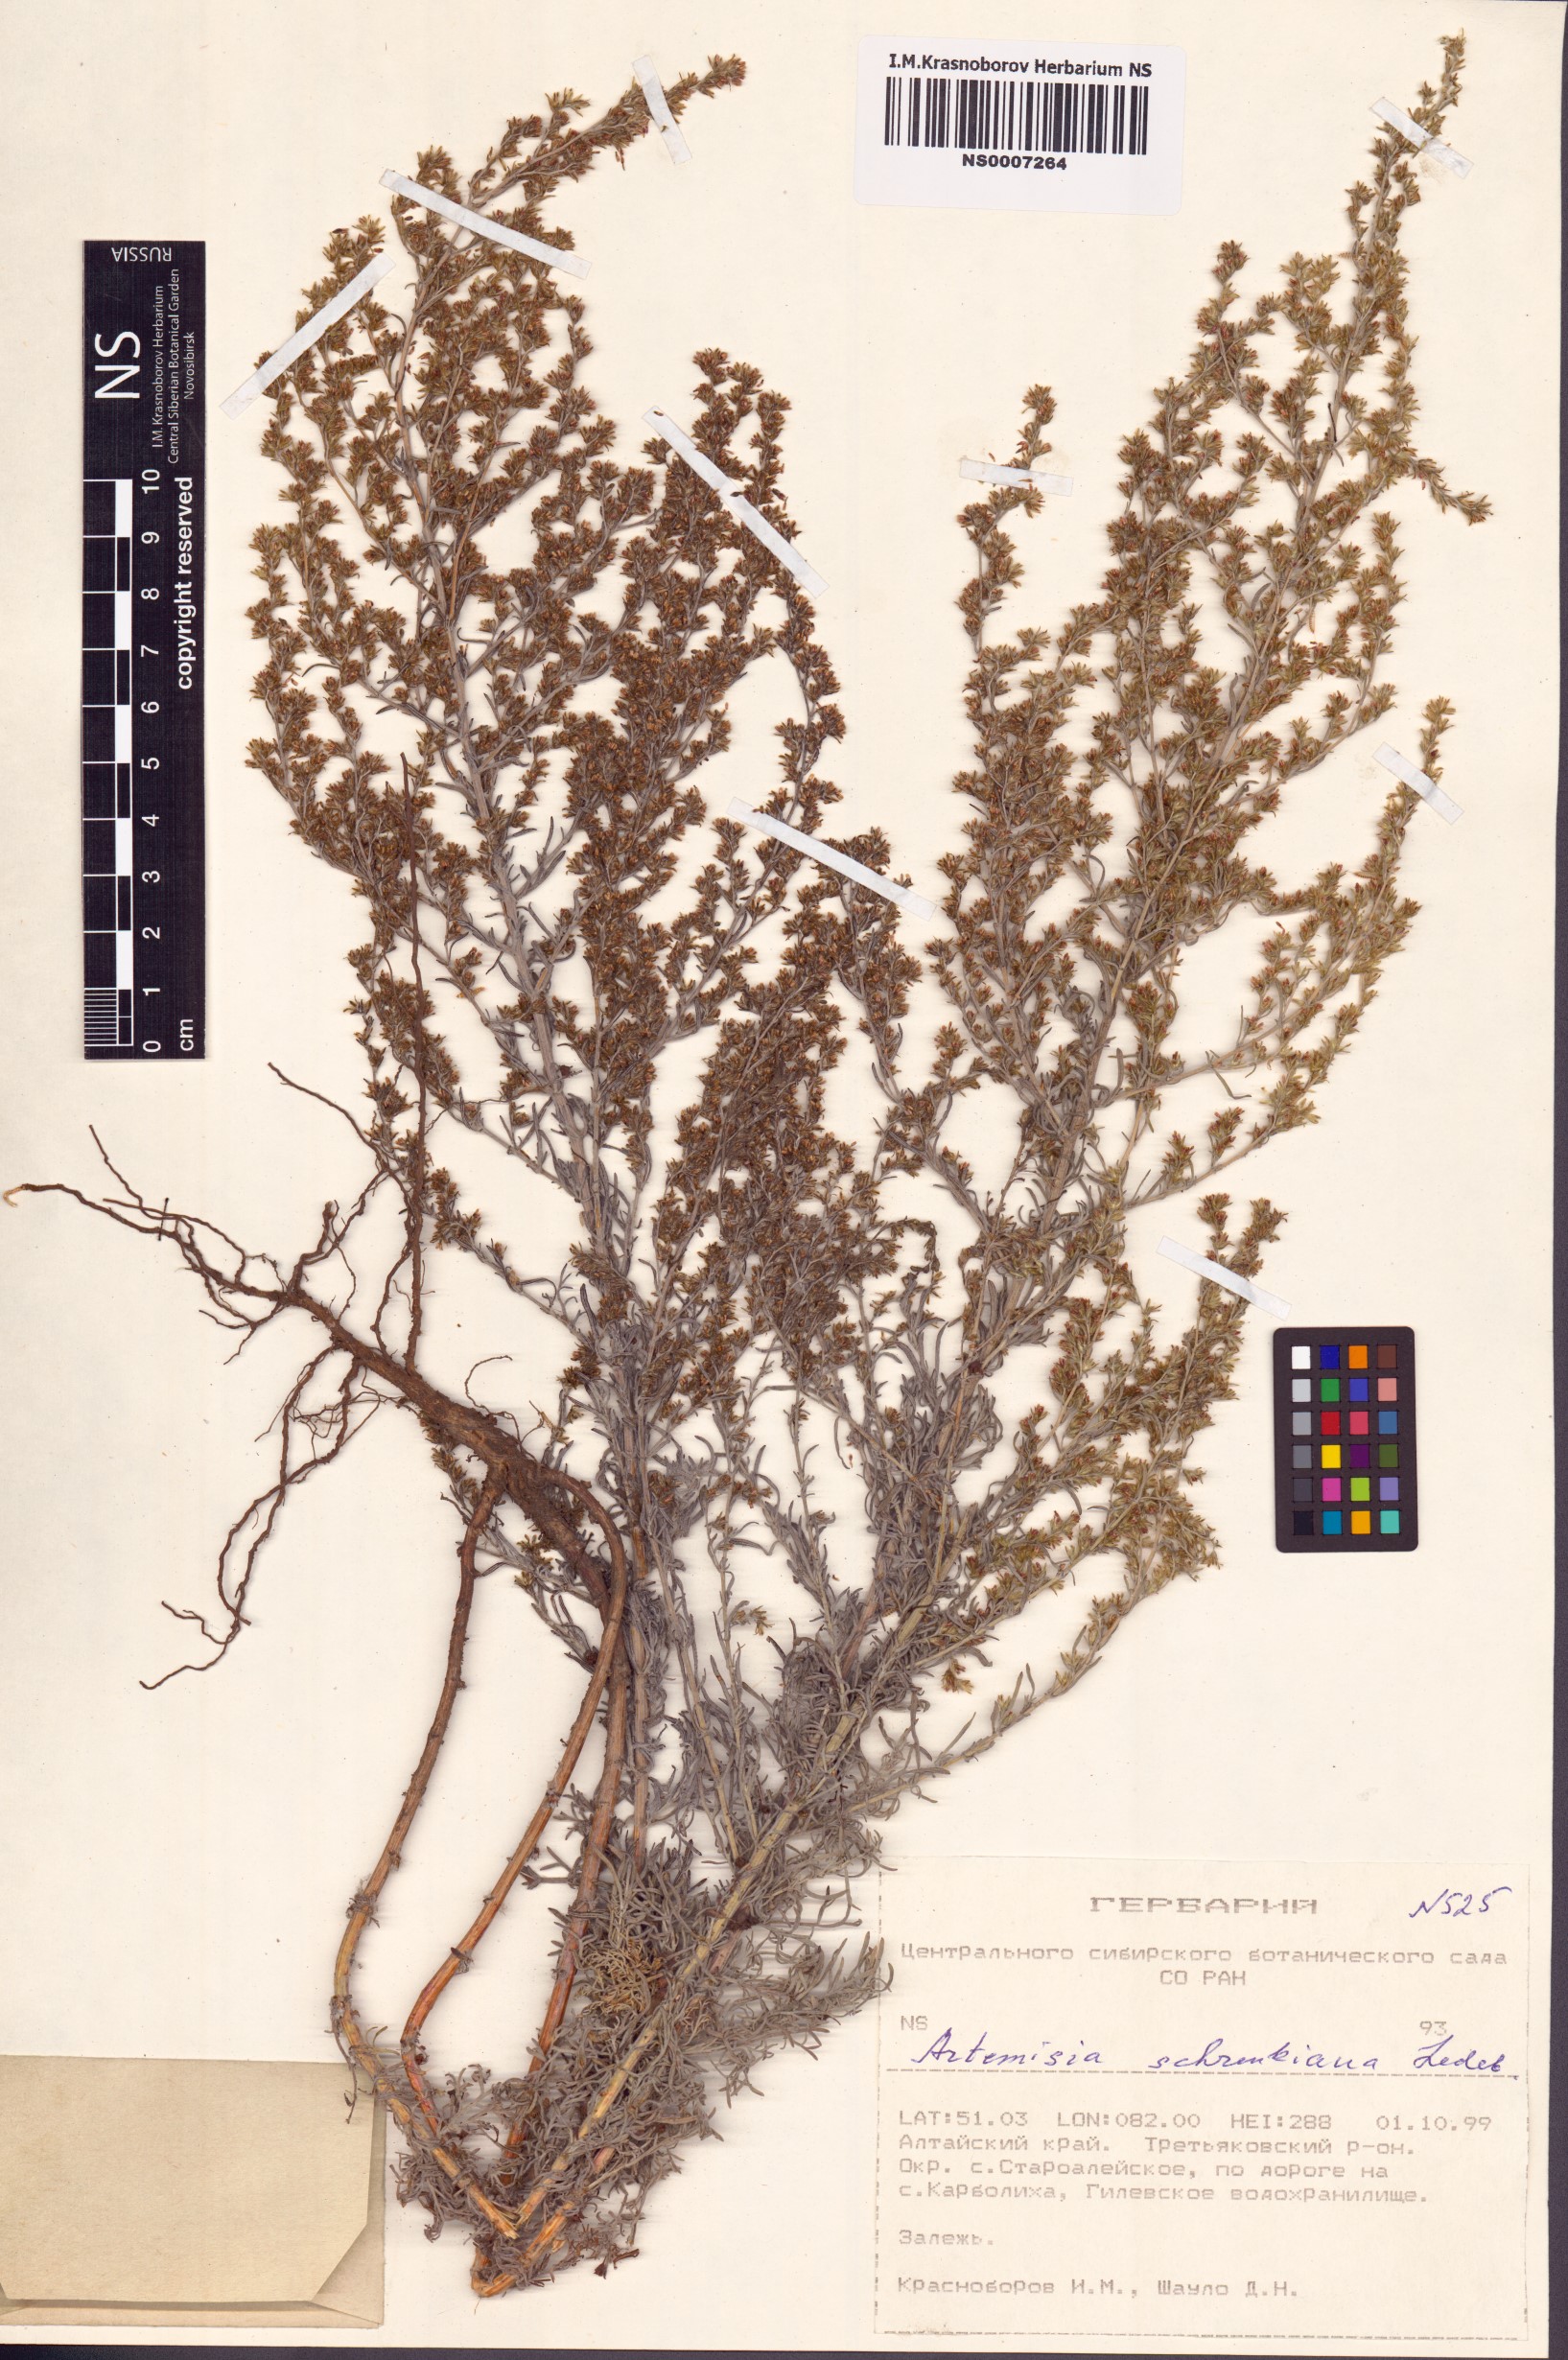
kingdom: Plantae
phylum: Tracheophyta
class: Magnoliopsida
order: Asterales
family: Asteraceae
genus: Artemisia
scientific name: Artemisia schrenkiana
